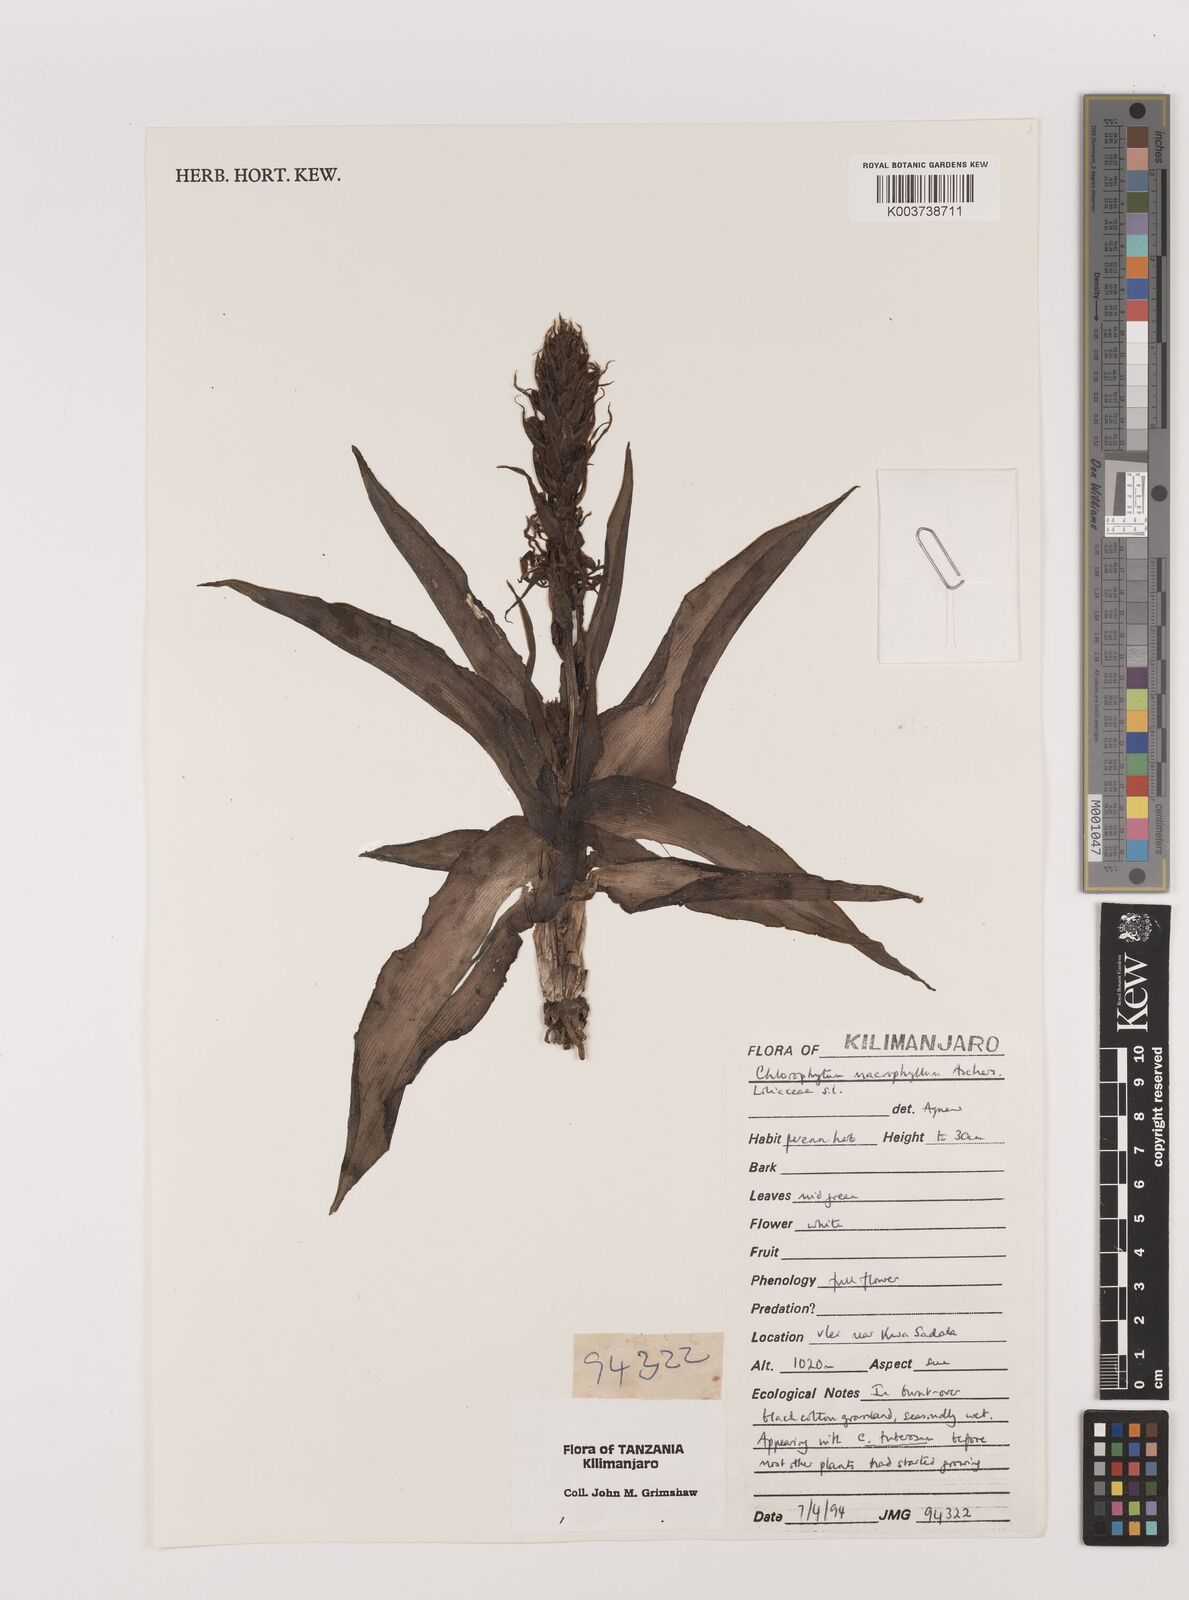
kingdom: Plantae
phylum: Tracheophyta
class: Liliopsida
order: Asparagales
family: Asparagaceae
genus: Chlorophytum
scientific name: Chlorophytum macrophyllum
